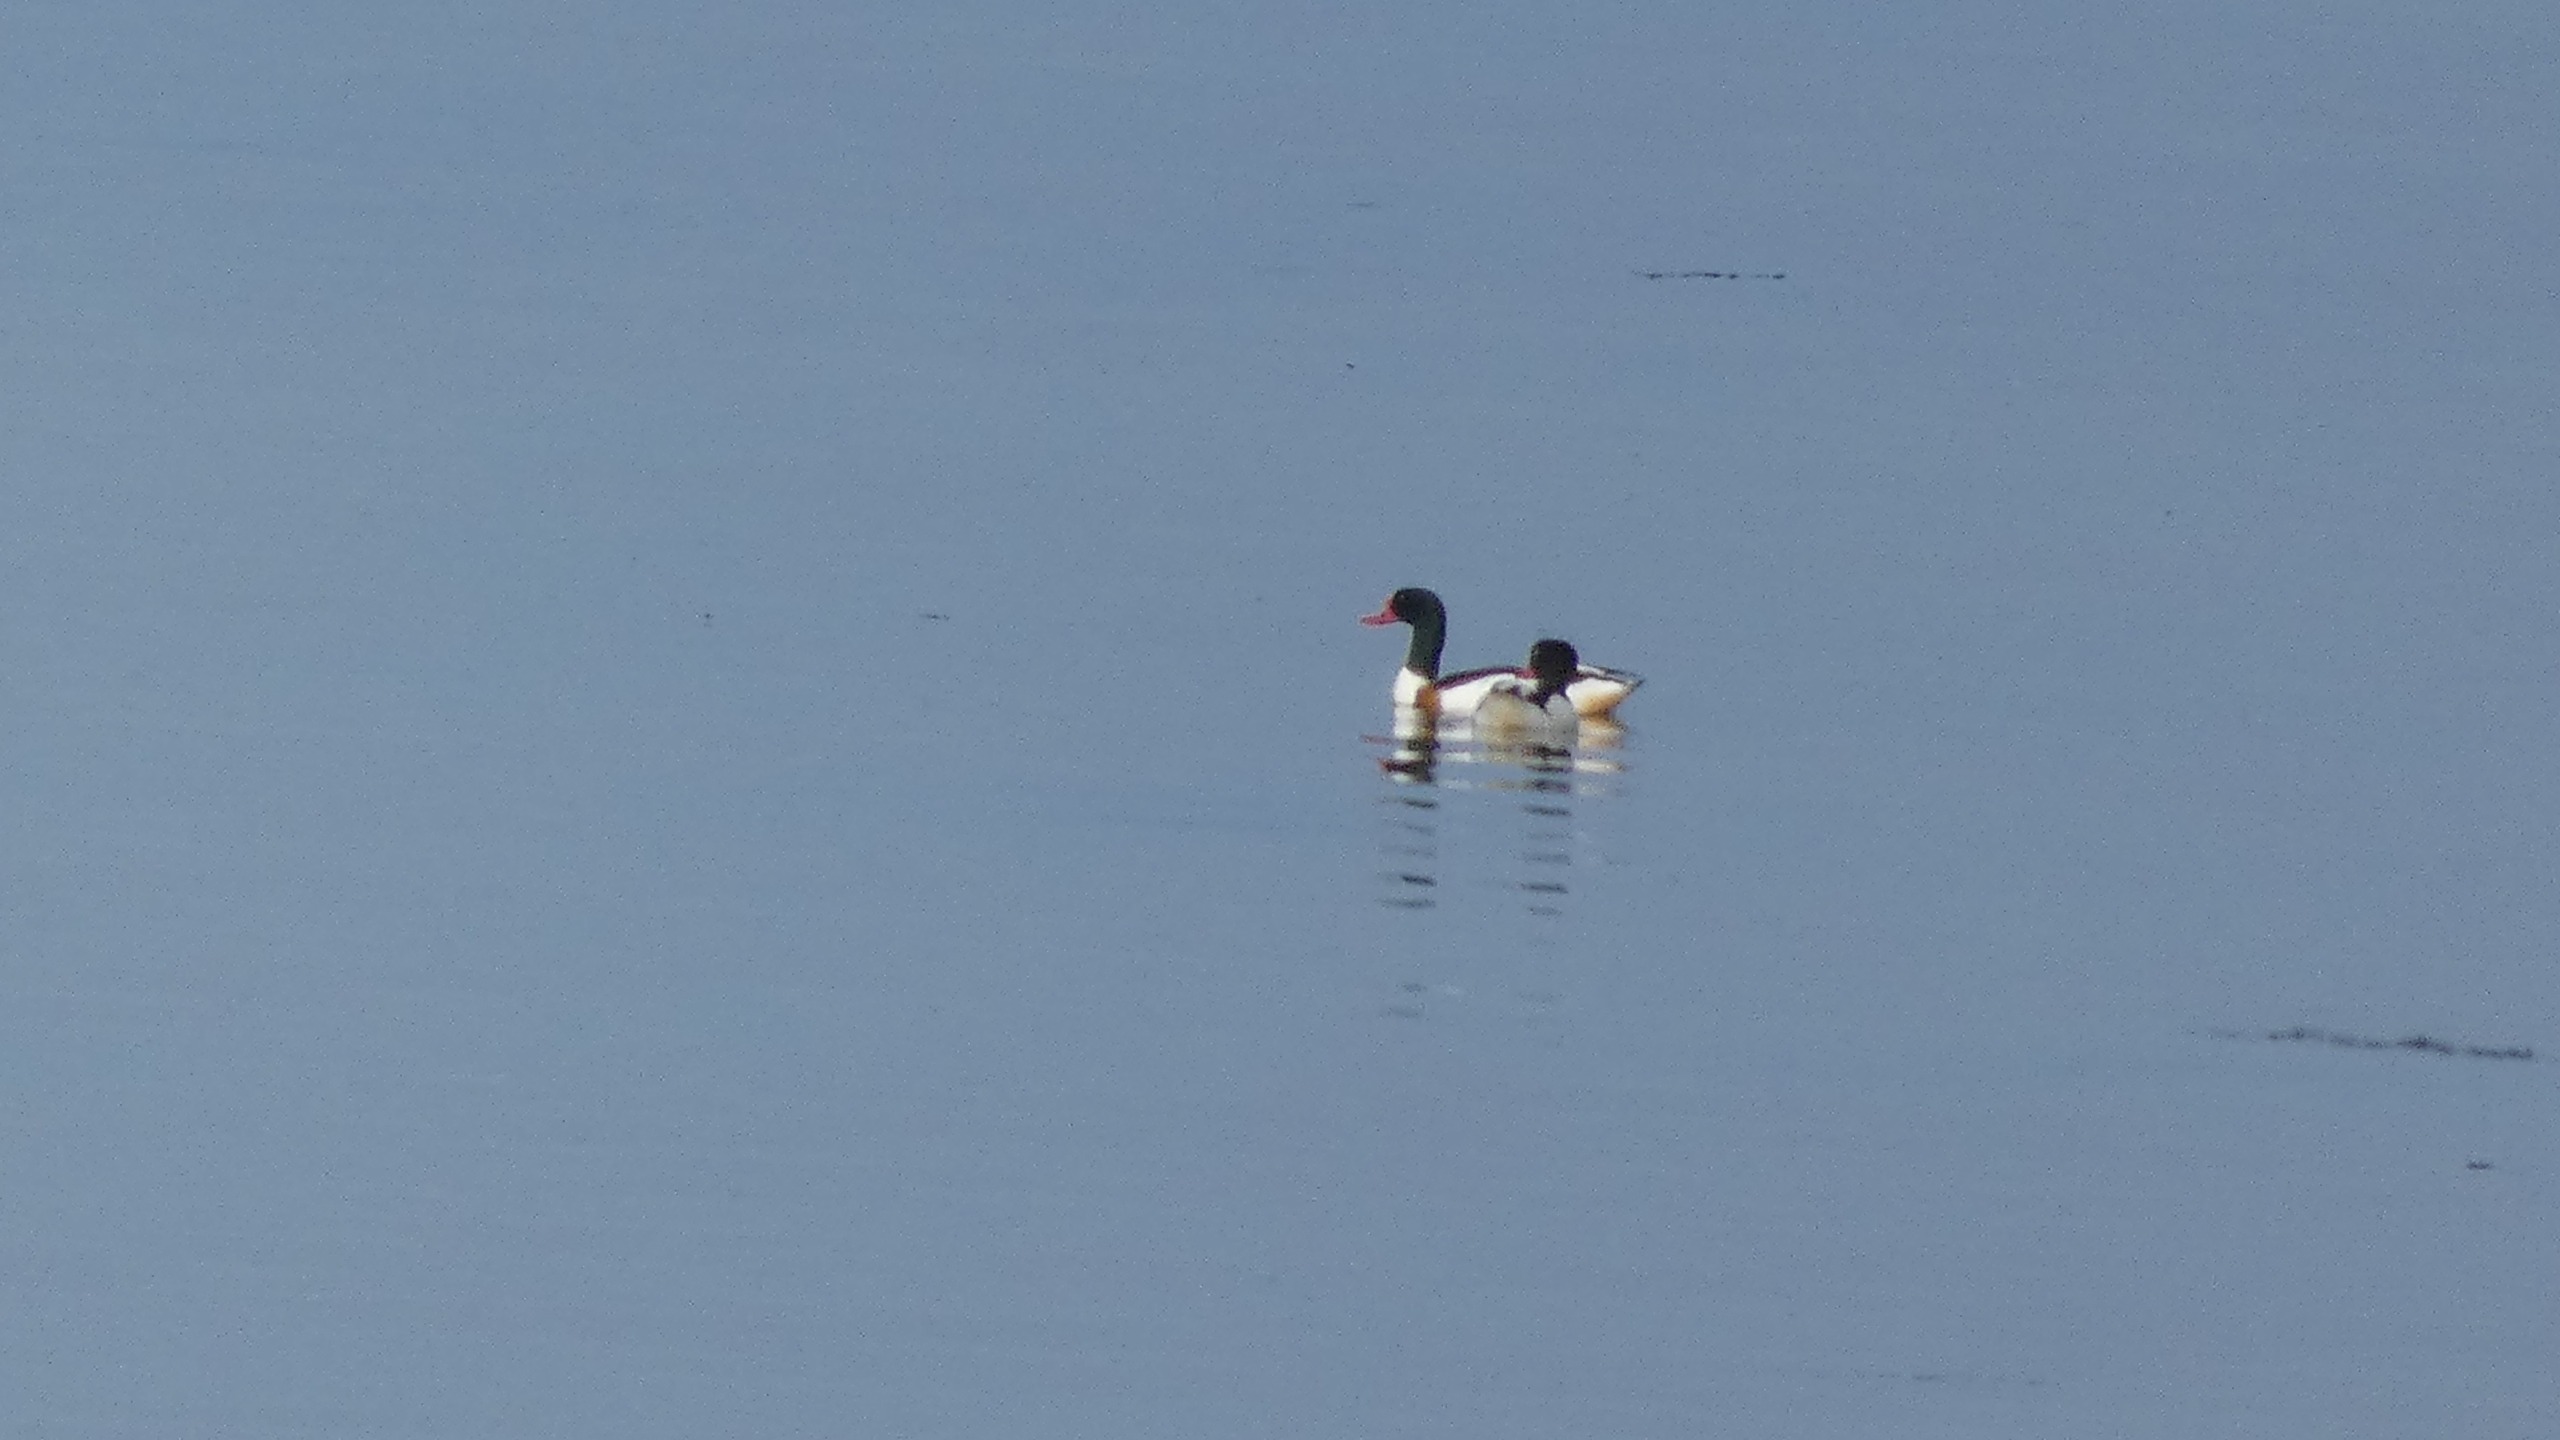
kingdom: Animalia
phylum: Chordata
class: Aves
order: Anseriformes
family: Anatidae
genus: Tadorna
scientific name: Tadorna tadorna
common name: Gravand
